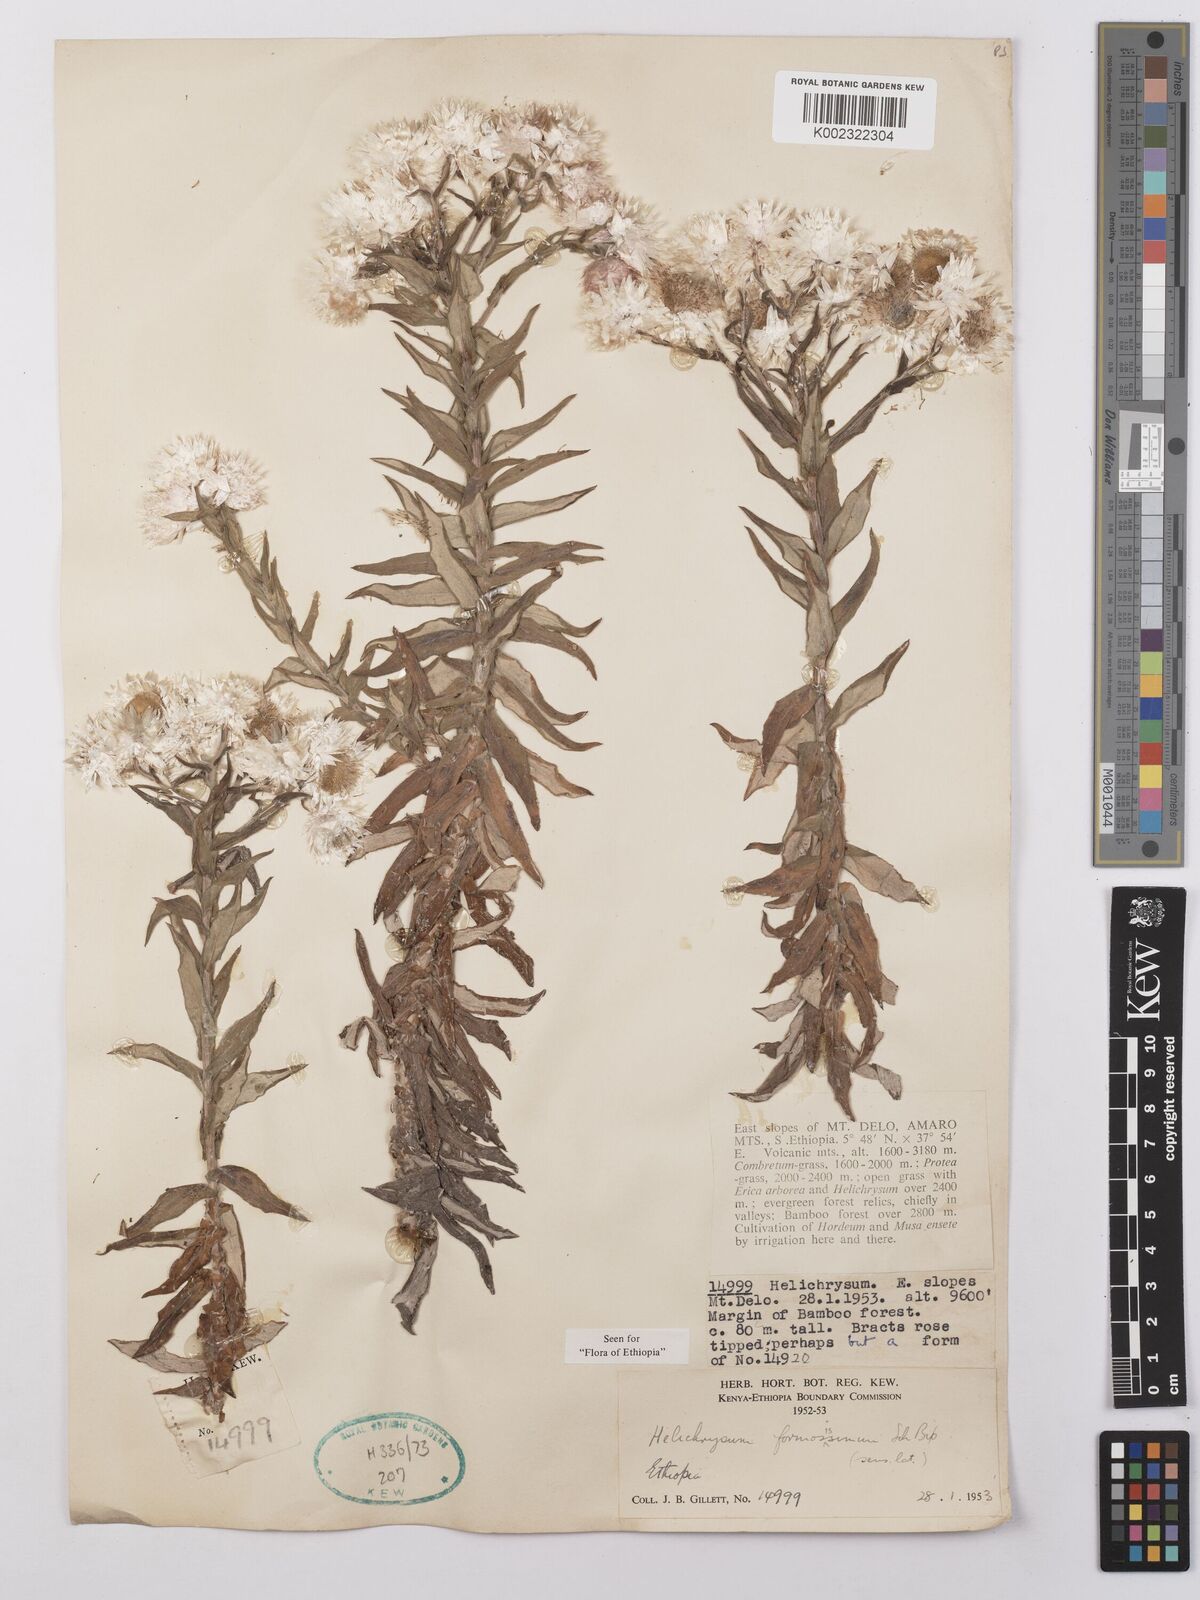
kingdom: Plantae
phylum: Tracheophyta
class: Magnoliopsida
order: Asterales
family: Asteraceae
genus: Helichrysum
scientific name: Helichrysum formosissimum
